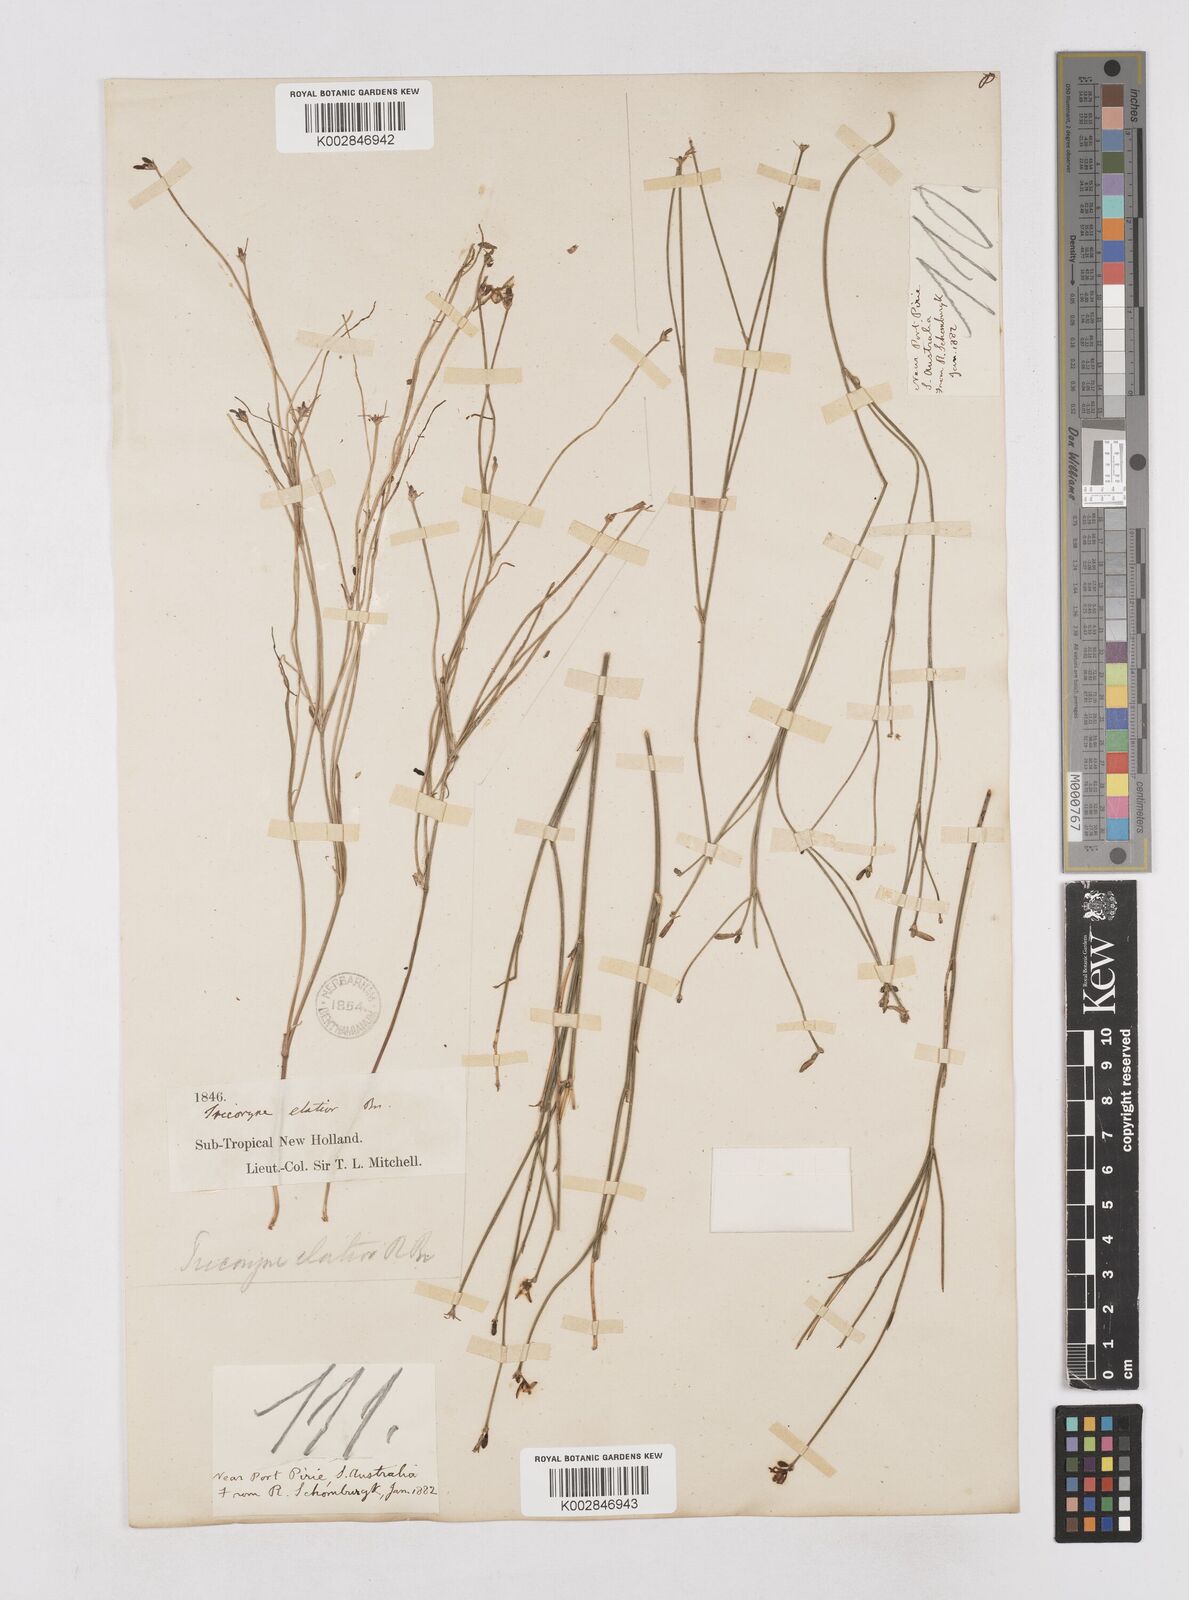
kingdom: Plantae
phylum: Tracheophyta
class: Liliopsida
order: Asparagales
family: Asphodelaceae
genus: Tricoryne
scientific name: Tricoryne elatior
